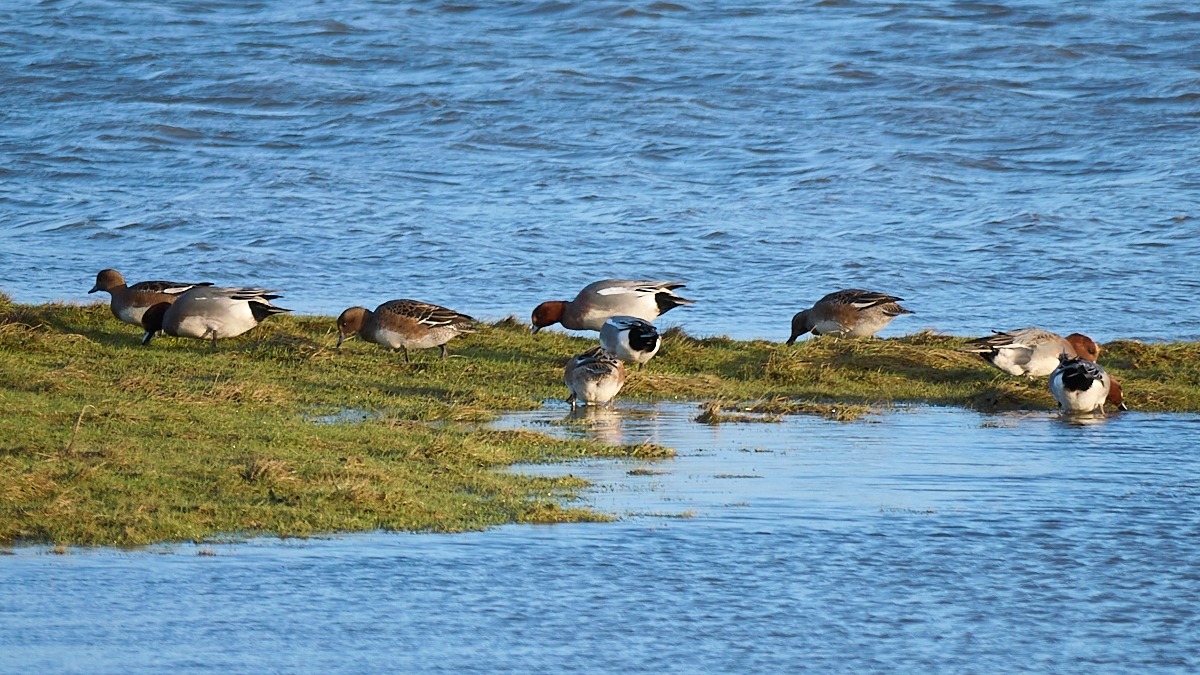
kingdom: Animalia
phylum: Chordata
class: Aves
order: Anseriformes
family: Anatidae
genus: Mareca
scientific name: Mareca penelope
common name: Pibeand
